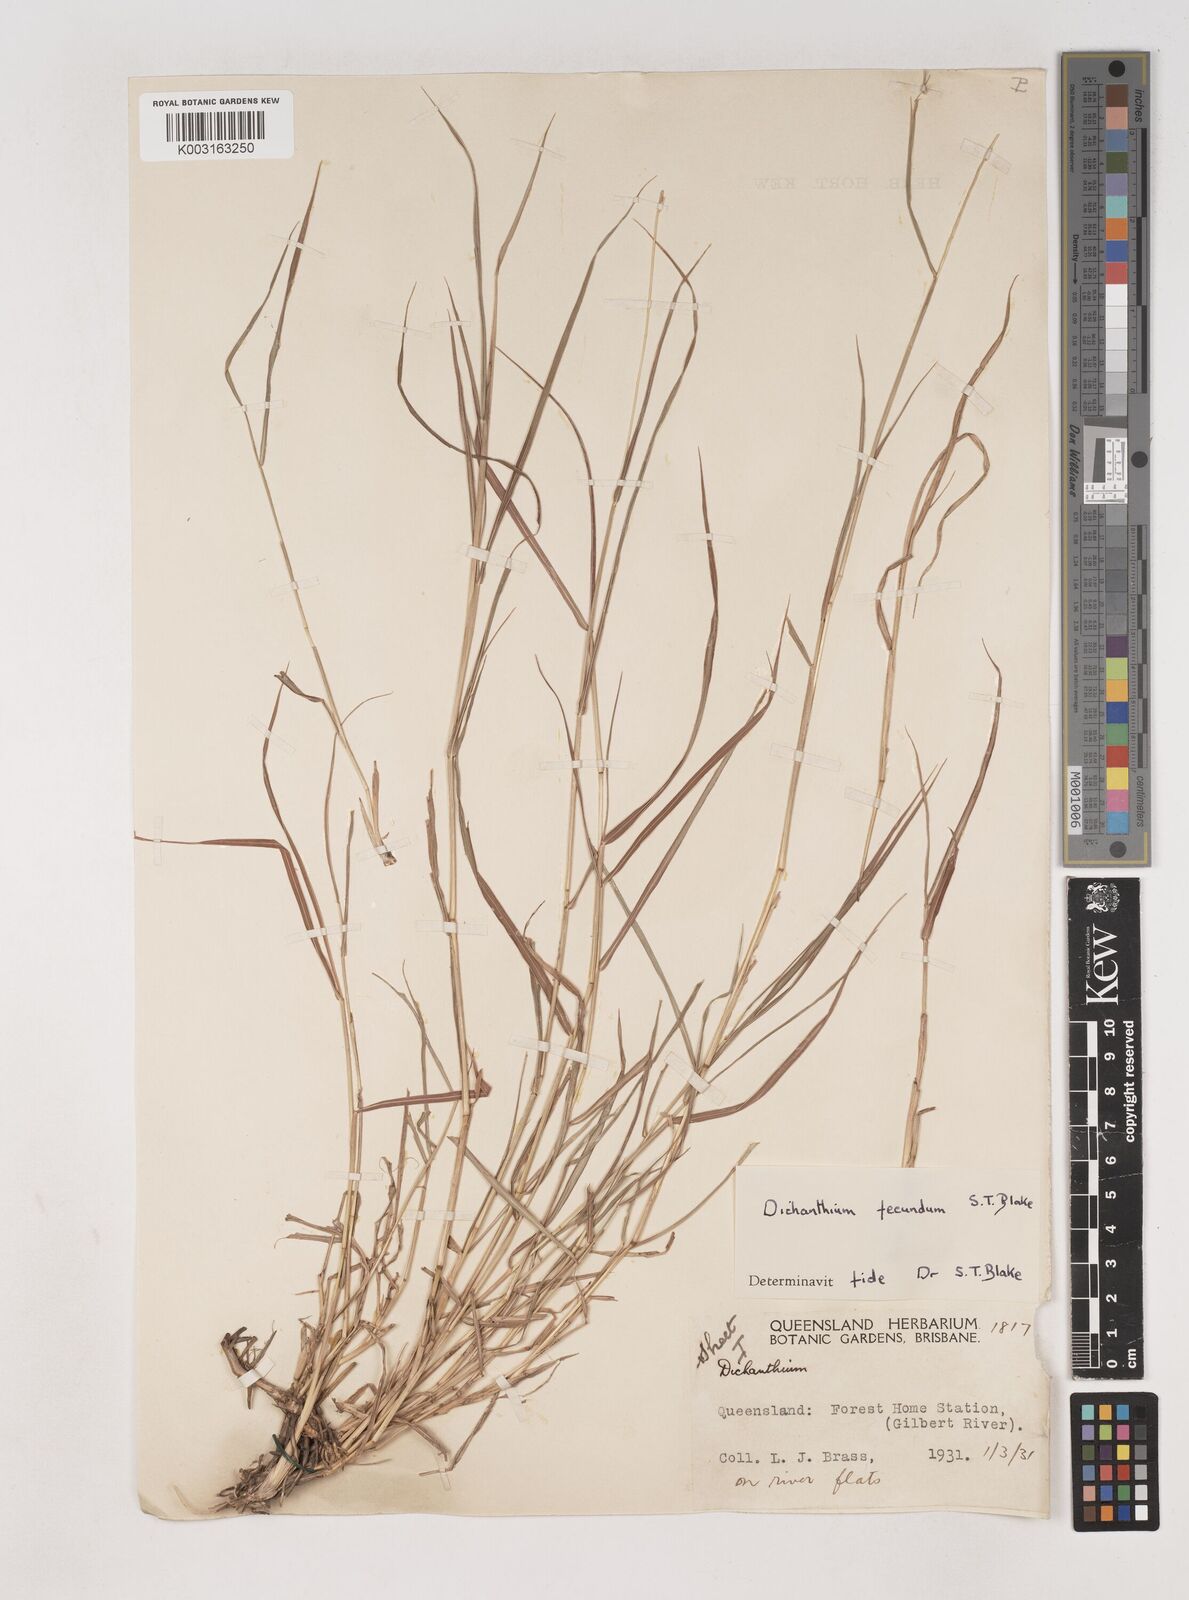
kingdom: Plantae
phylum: Tracheophyta
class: Liliopsida
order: Poales
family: Poaceae
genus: Dichanthium
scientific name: Dichanthium annulatum
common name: Kleberg's bluestem
